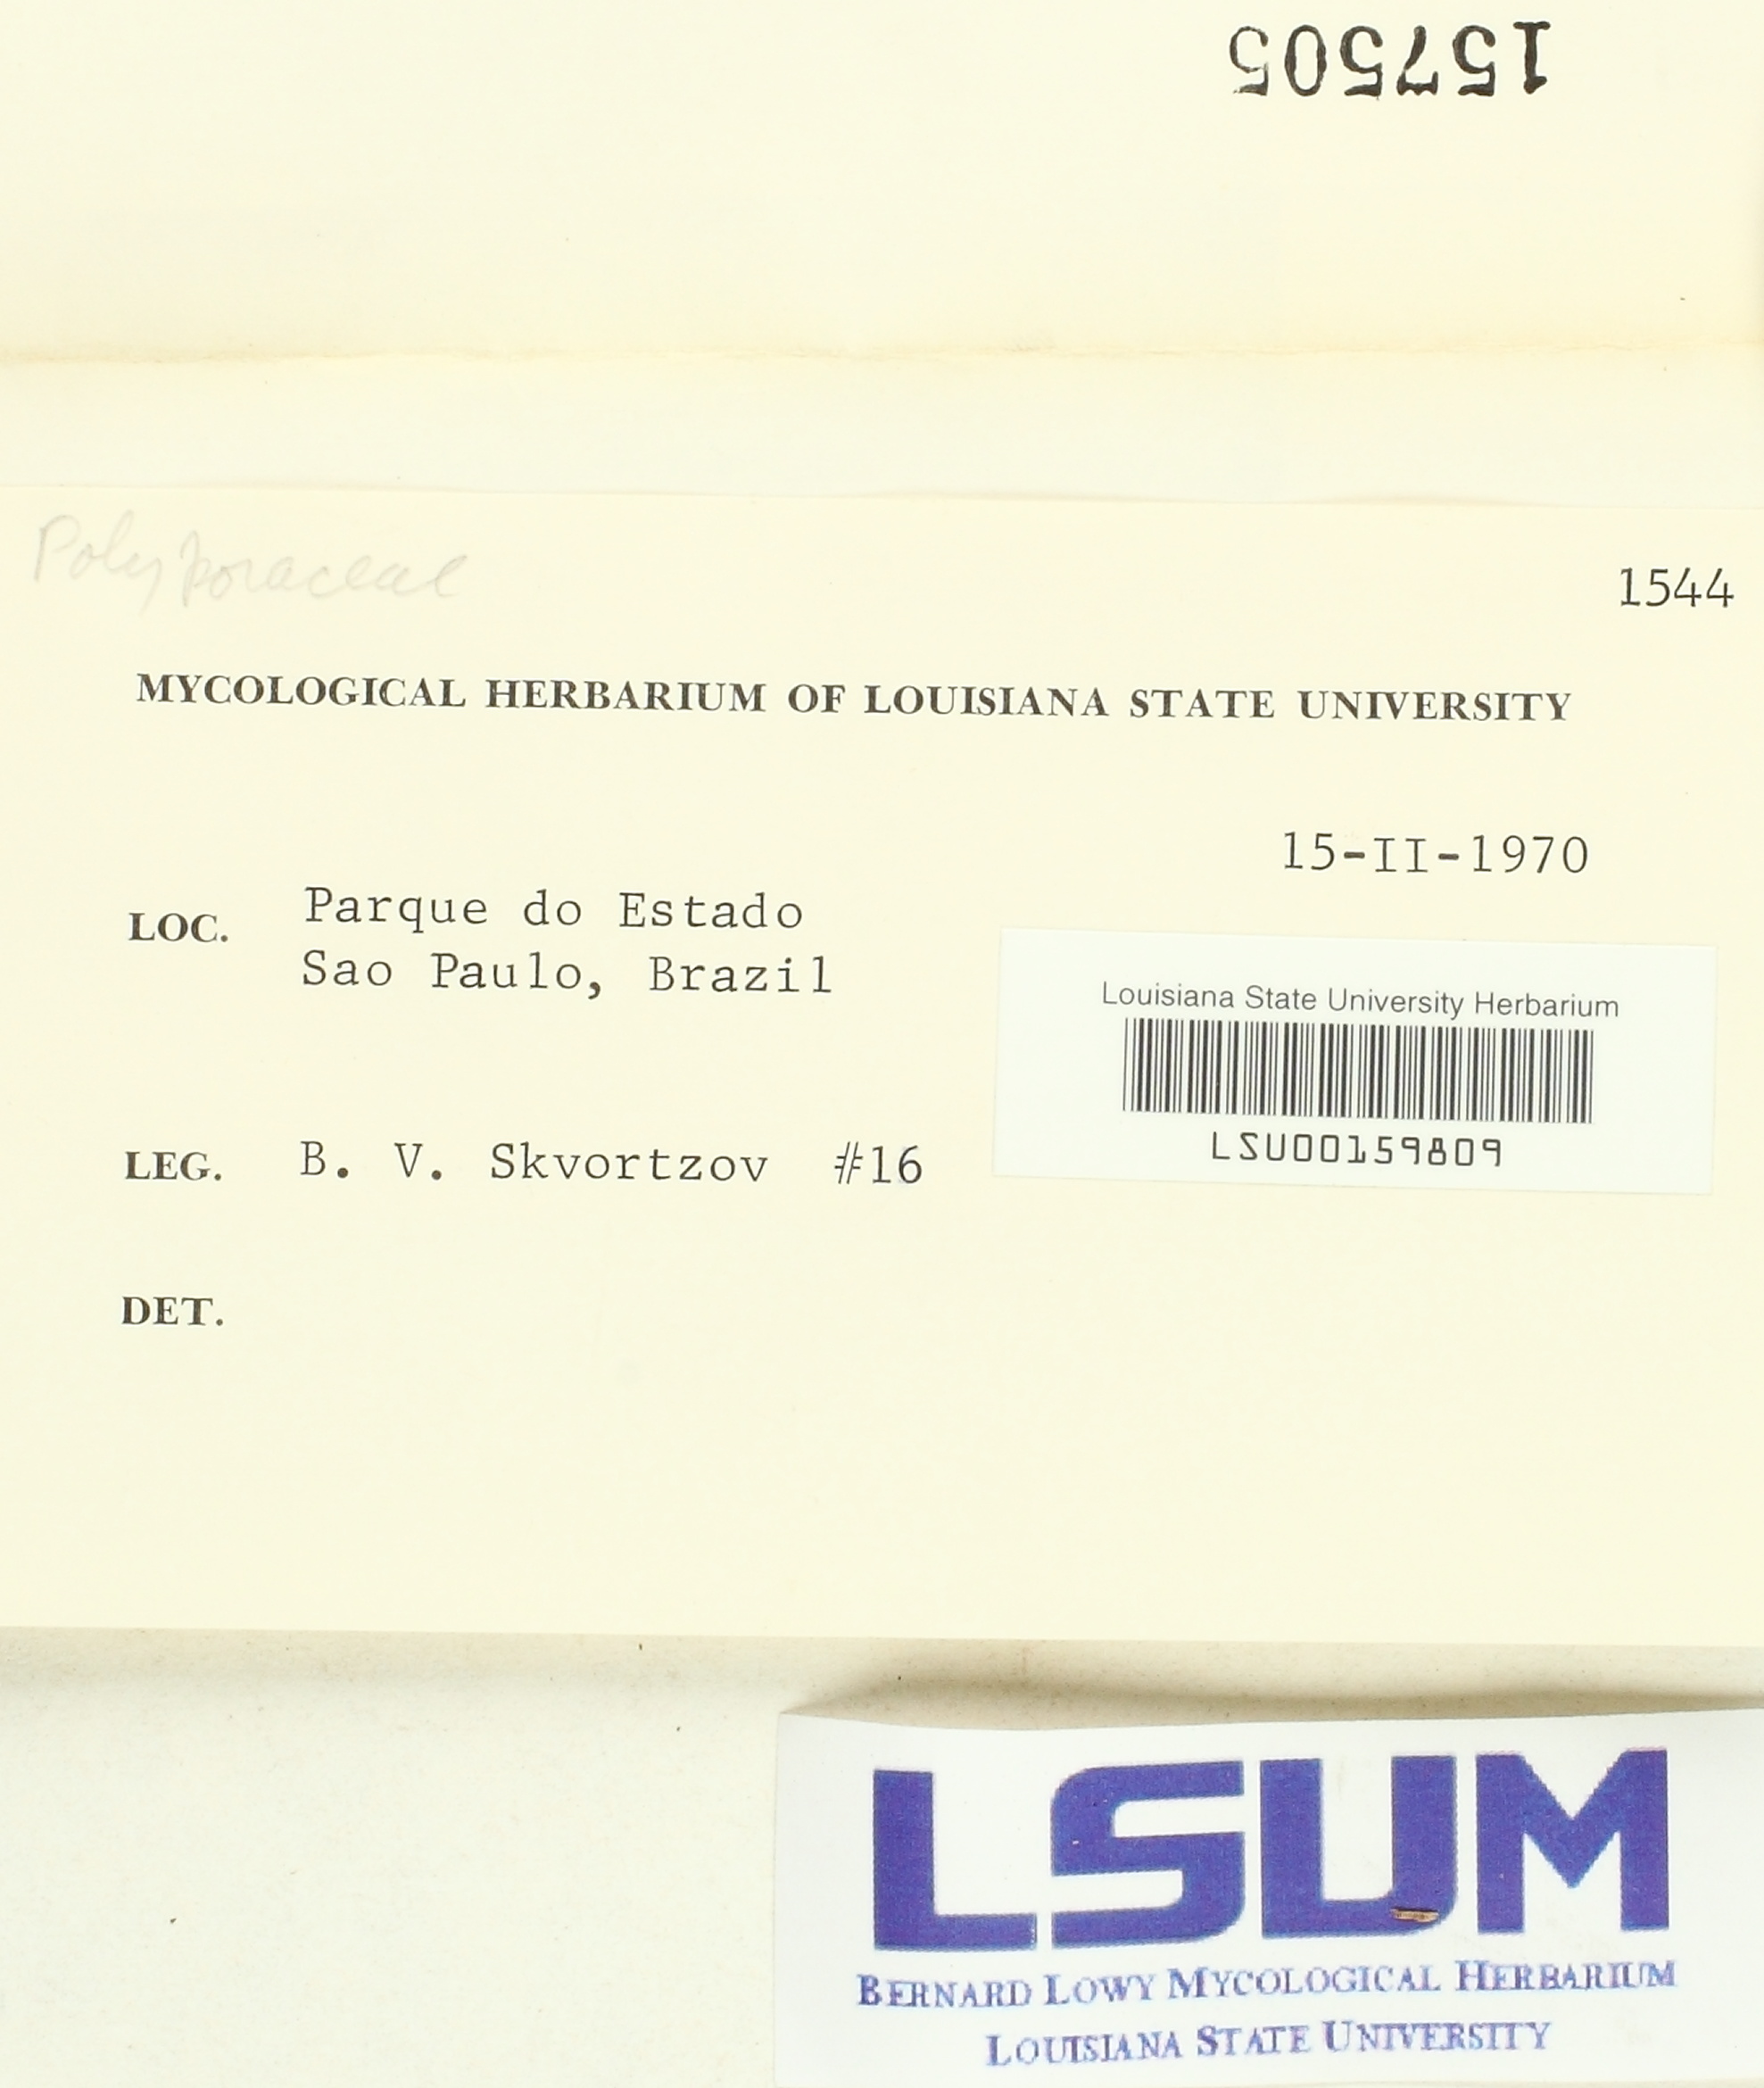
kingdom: Fungi
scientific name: Fungi
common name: Fungi
